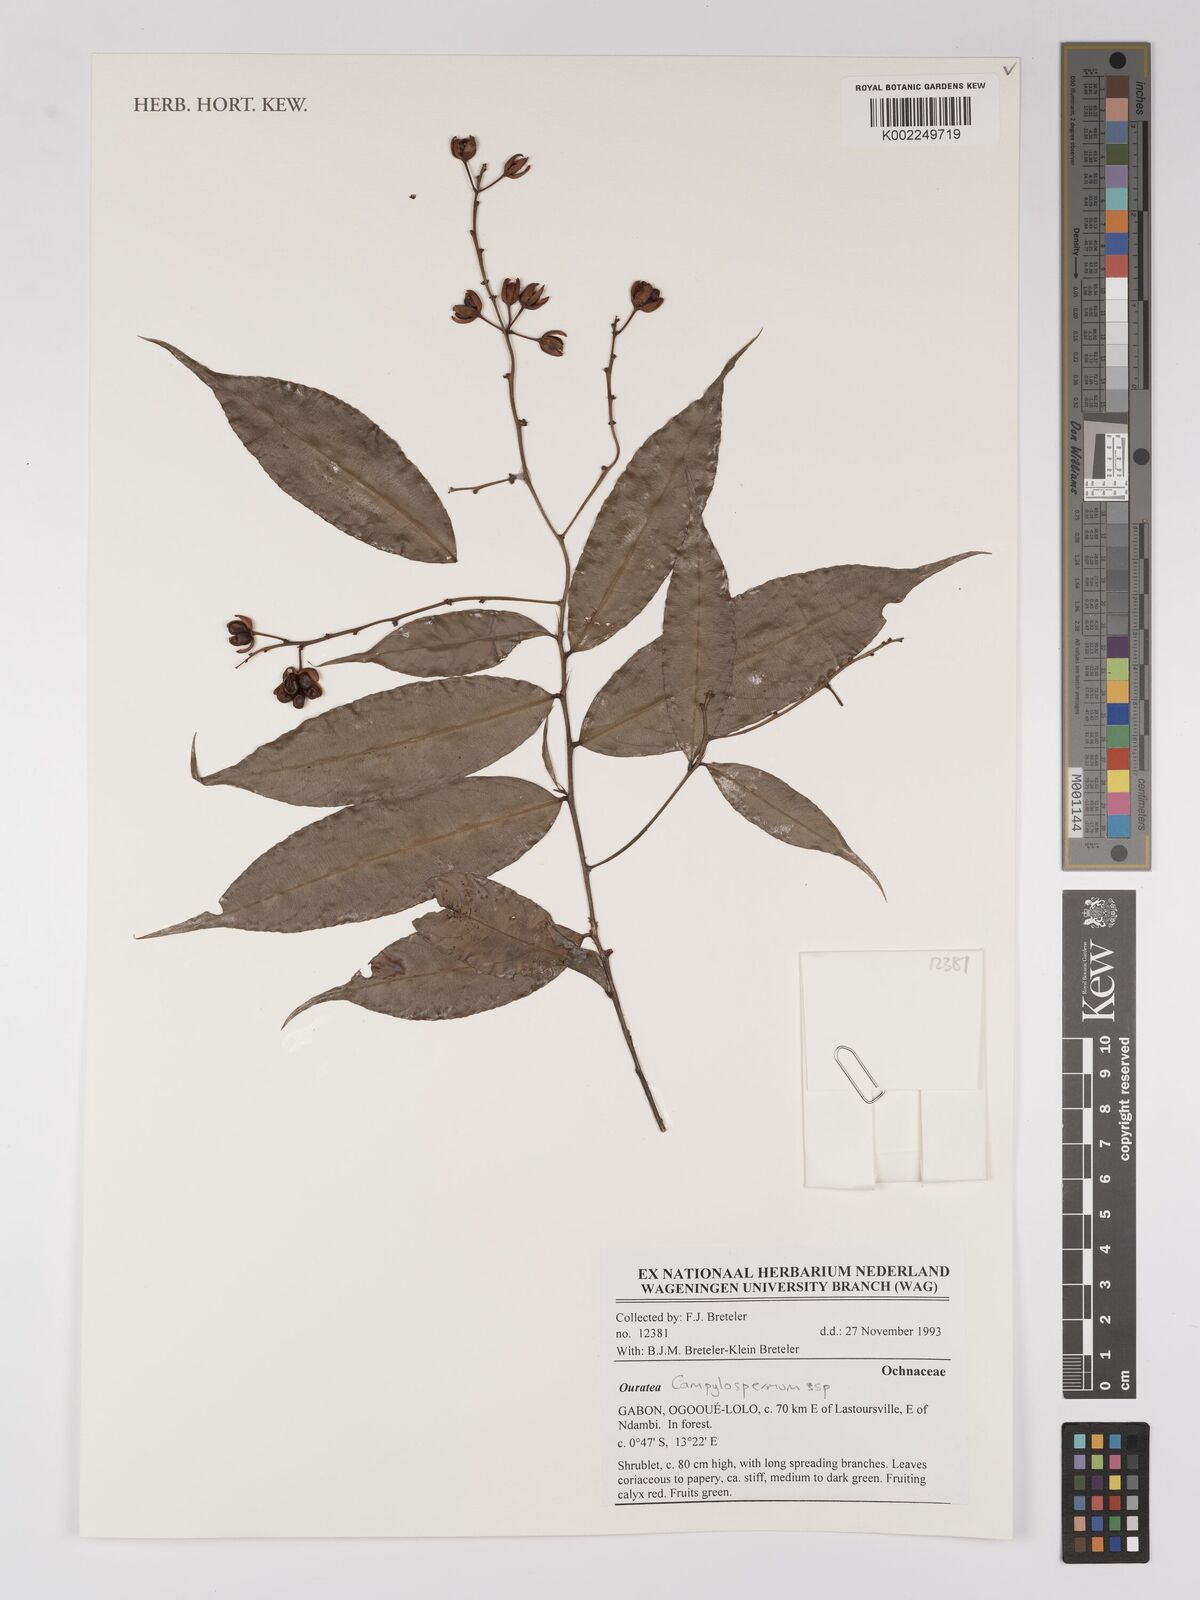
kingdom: Plantae
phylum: Tracheophyta
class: Magnoliopsida
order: Malpighiales
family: Ochnaceae
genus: Campylospermum
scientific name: Campylospermum
